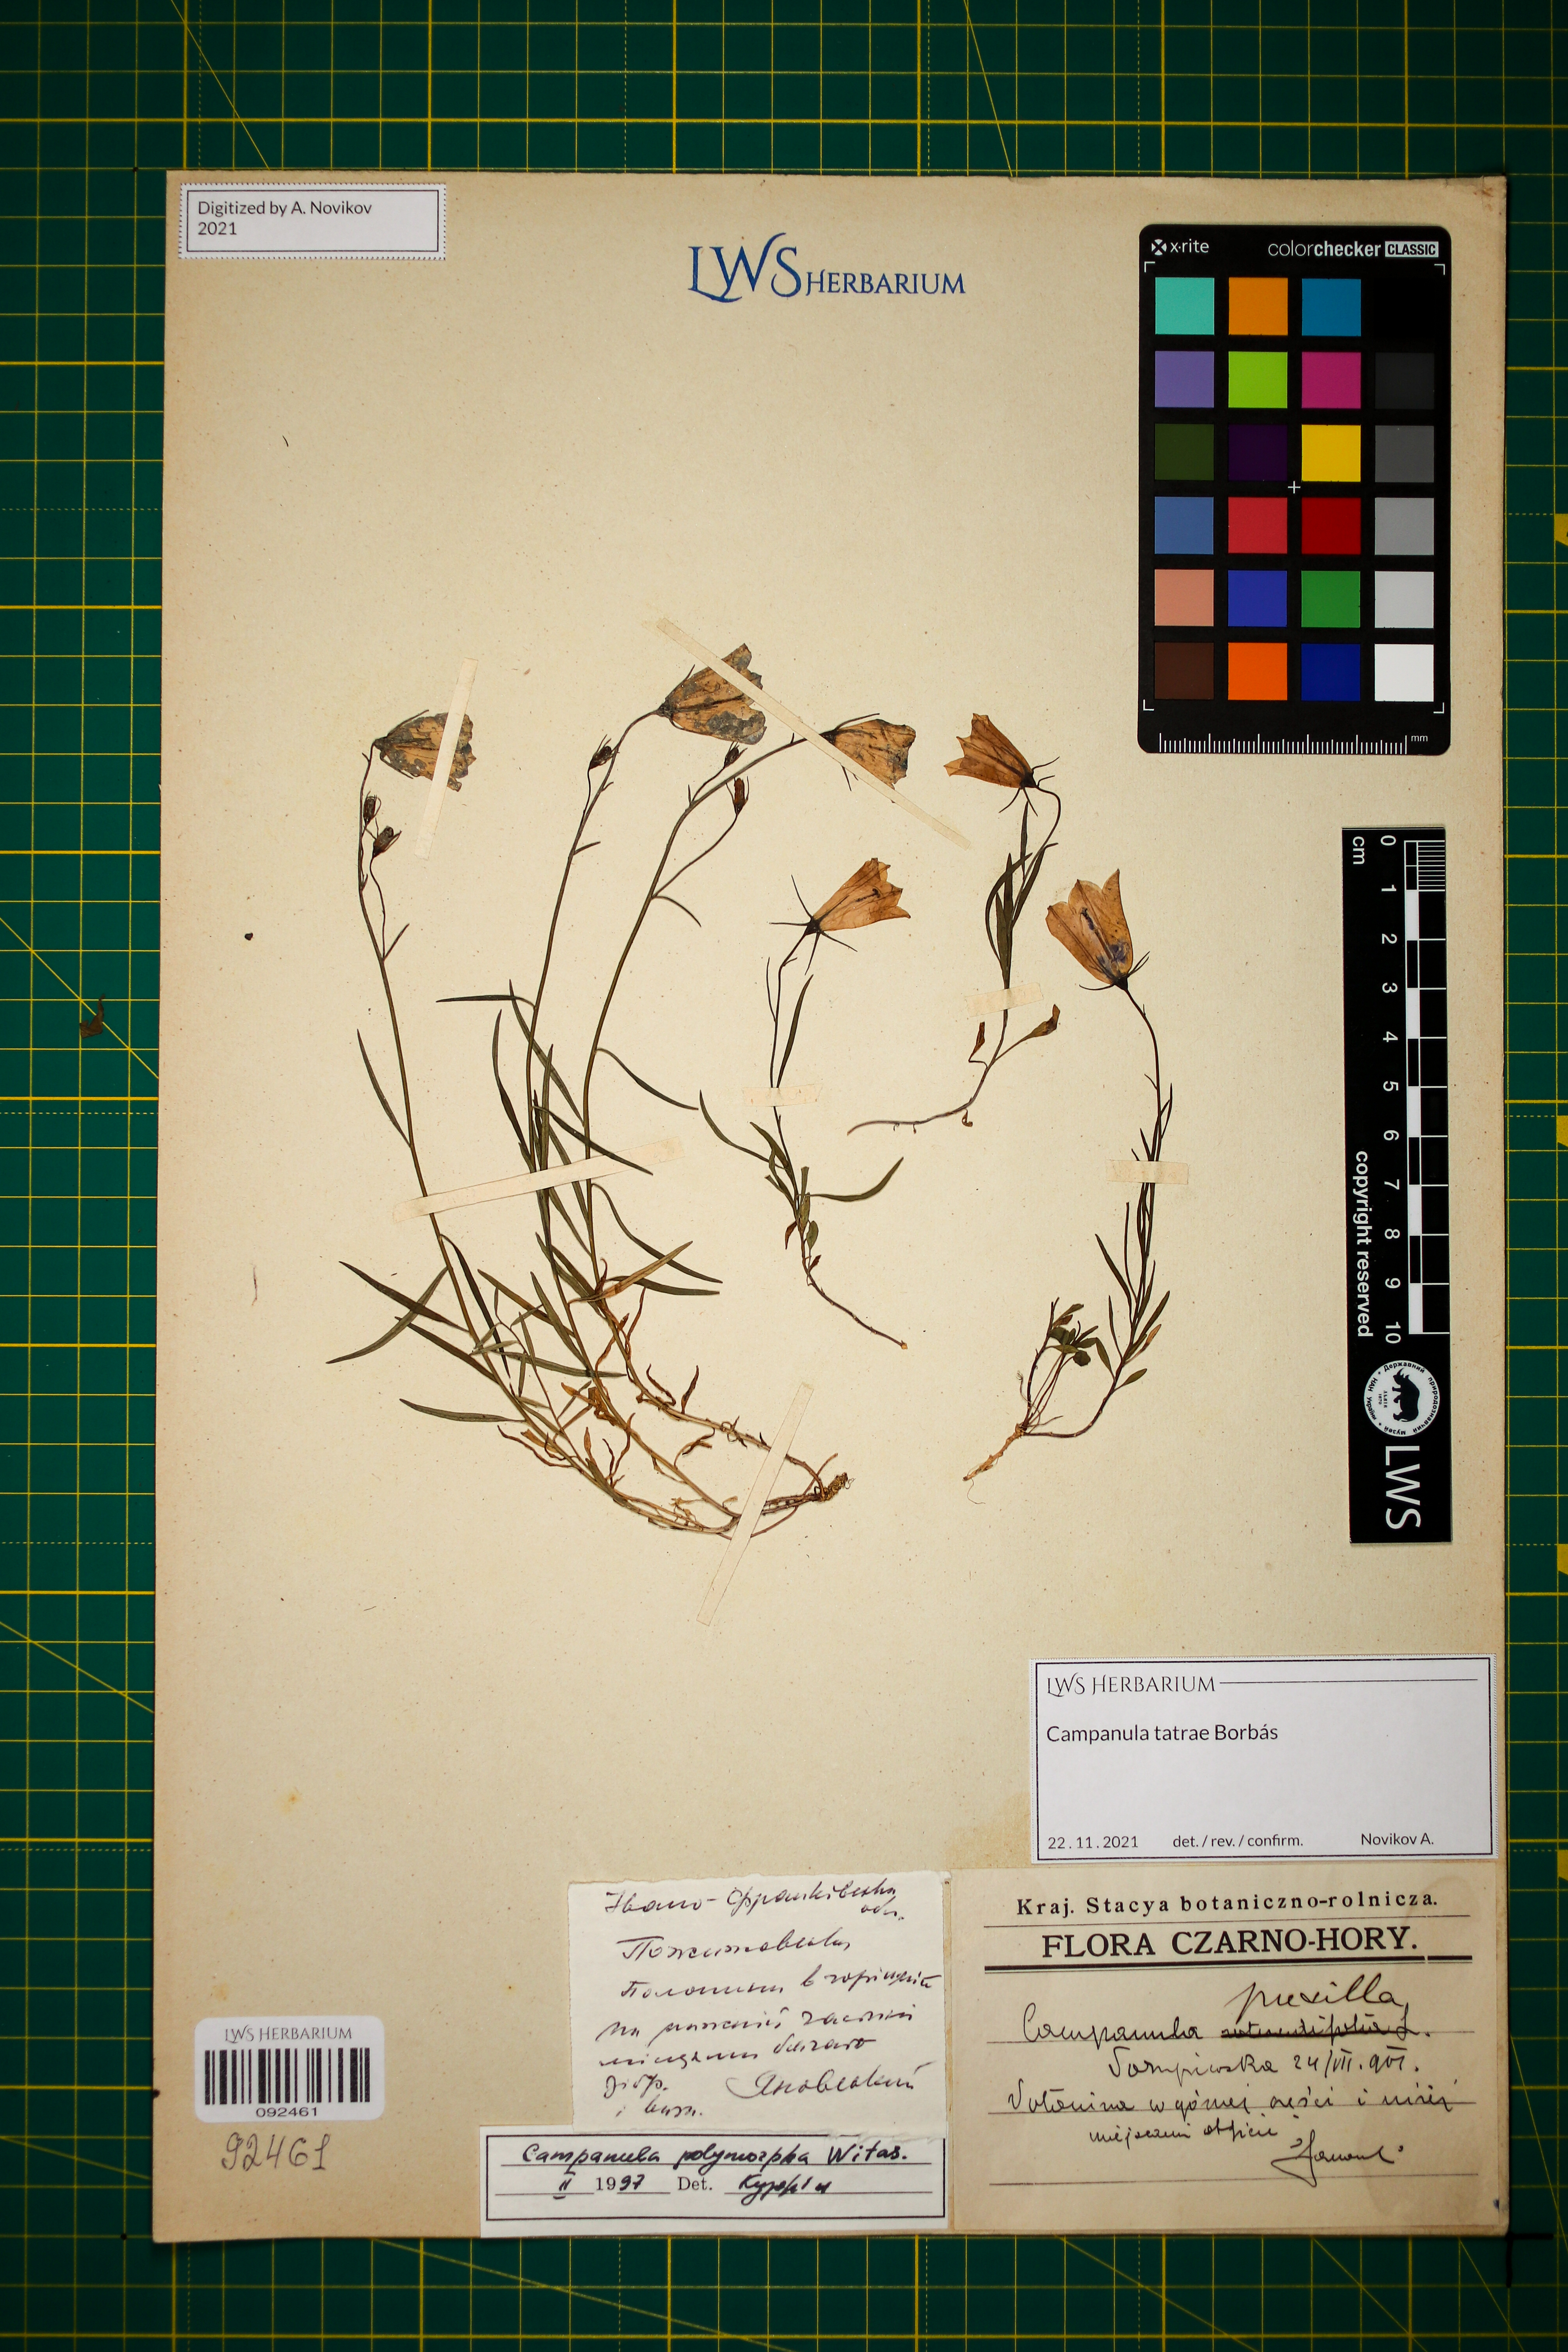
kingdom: Plantae
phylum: Tracheophyta
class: Magnoliopsida
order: Asterales
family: Campanulaceae
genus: Campanula
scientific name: Campanula tatrae
